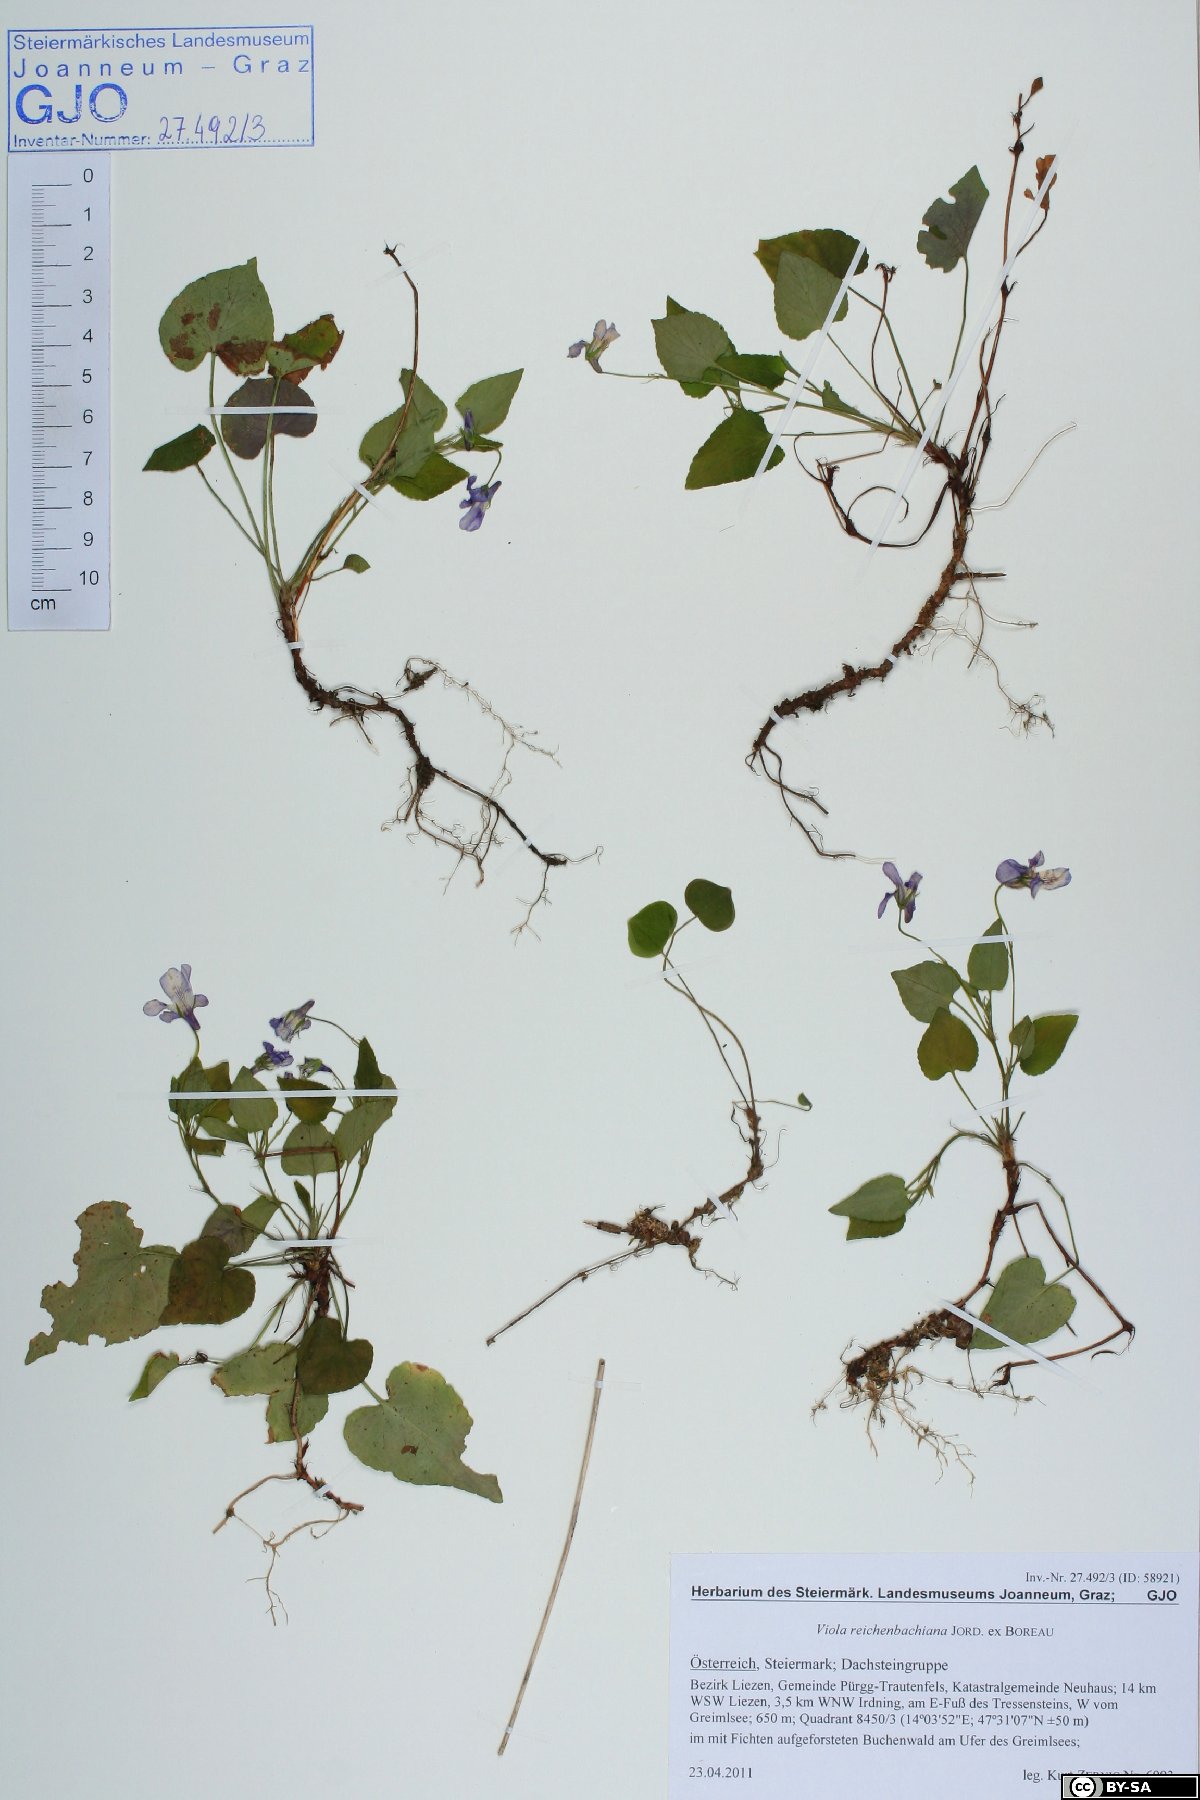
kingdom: Plantae
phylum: Tracheophyta
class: Magnoliopsida
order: Malpighiales
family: Violaceae
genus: Viola
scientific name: Viola reichenbachiana
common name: Early dog-violet
